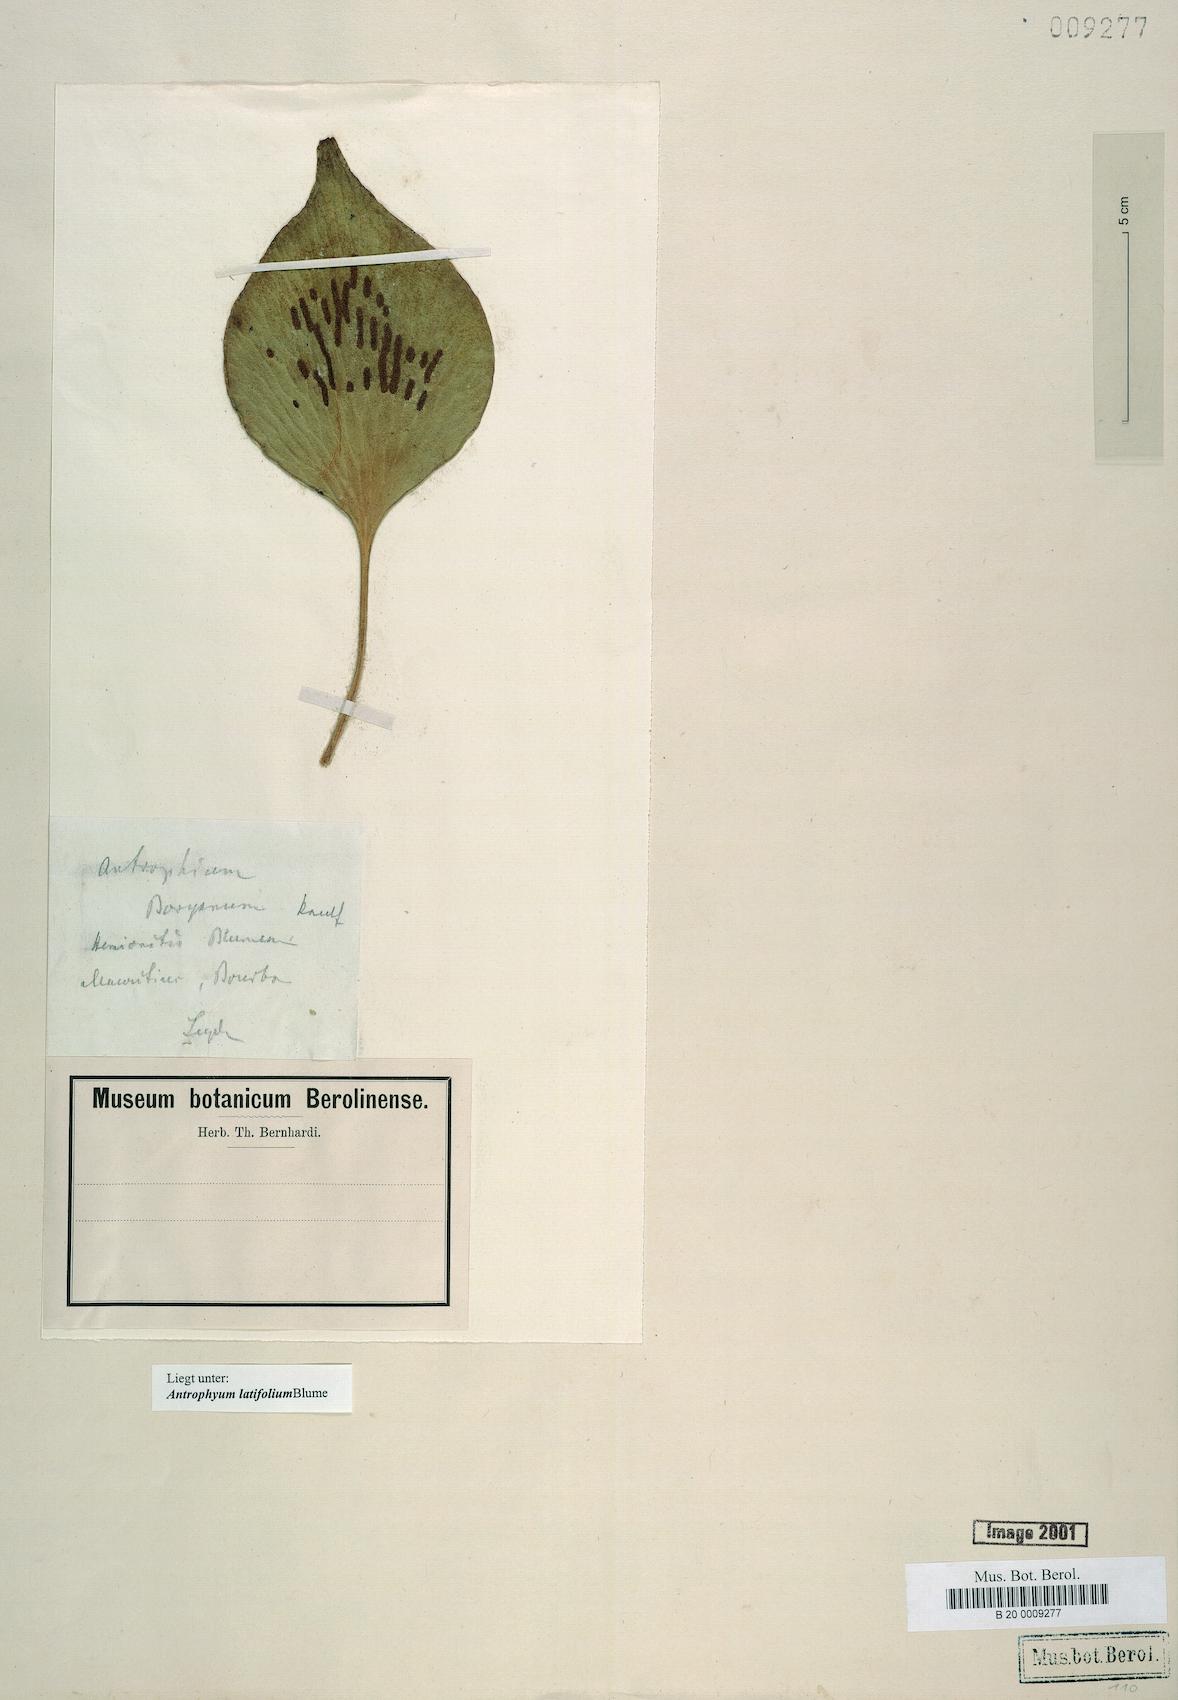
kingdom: Plantae
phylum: Tracheophyta
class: Polypodiopsida
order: Polypodiales
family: Pteridaceae
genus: Antrophyum
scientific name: Antrophyum latifolium
